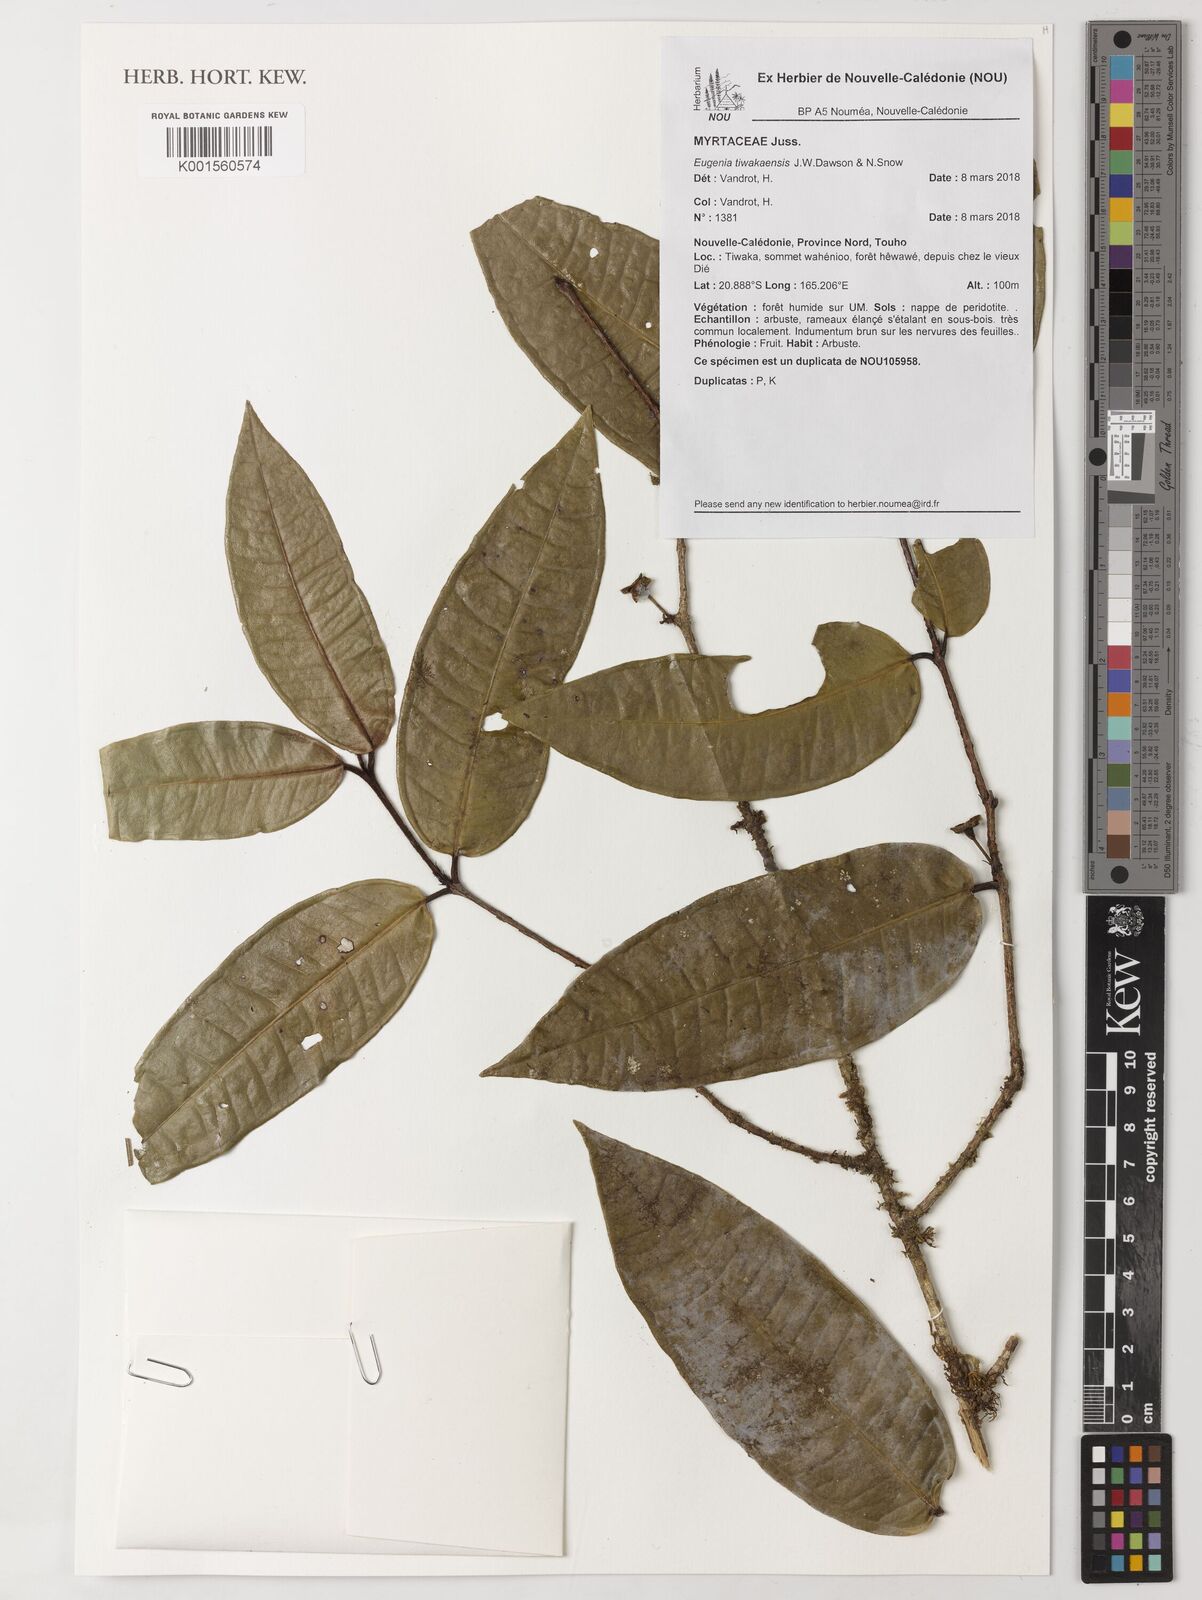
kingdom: Plantae
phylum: Tracheophyta
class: Magnoliopsida
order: Myrtales
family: Myrtaceae
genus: Eugenia
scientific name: Eugenia tiwakaensis
